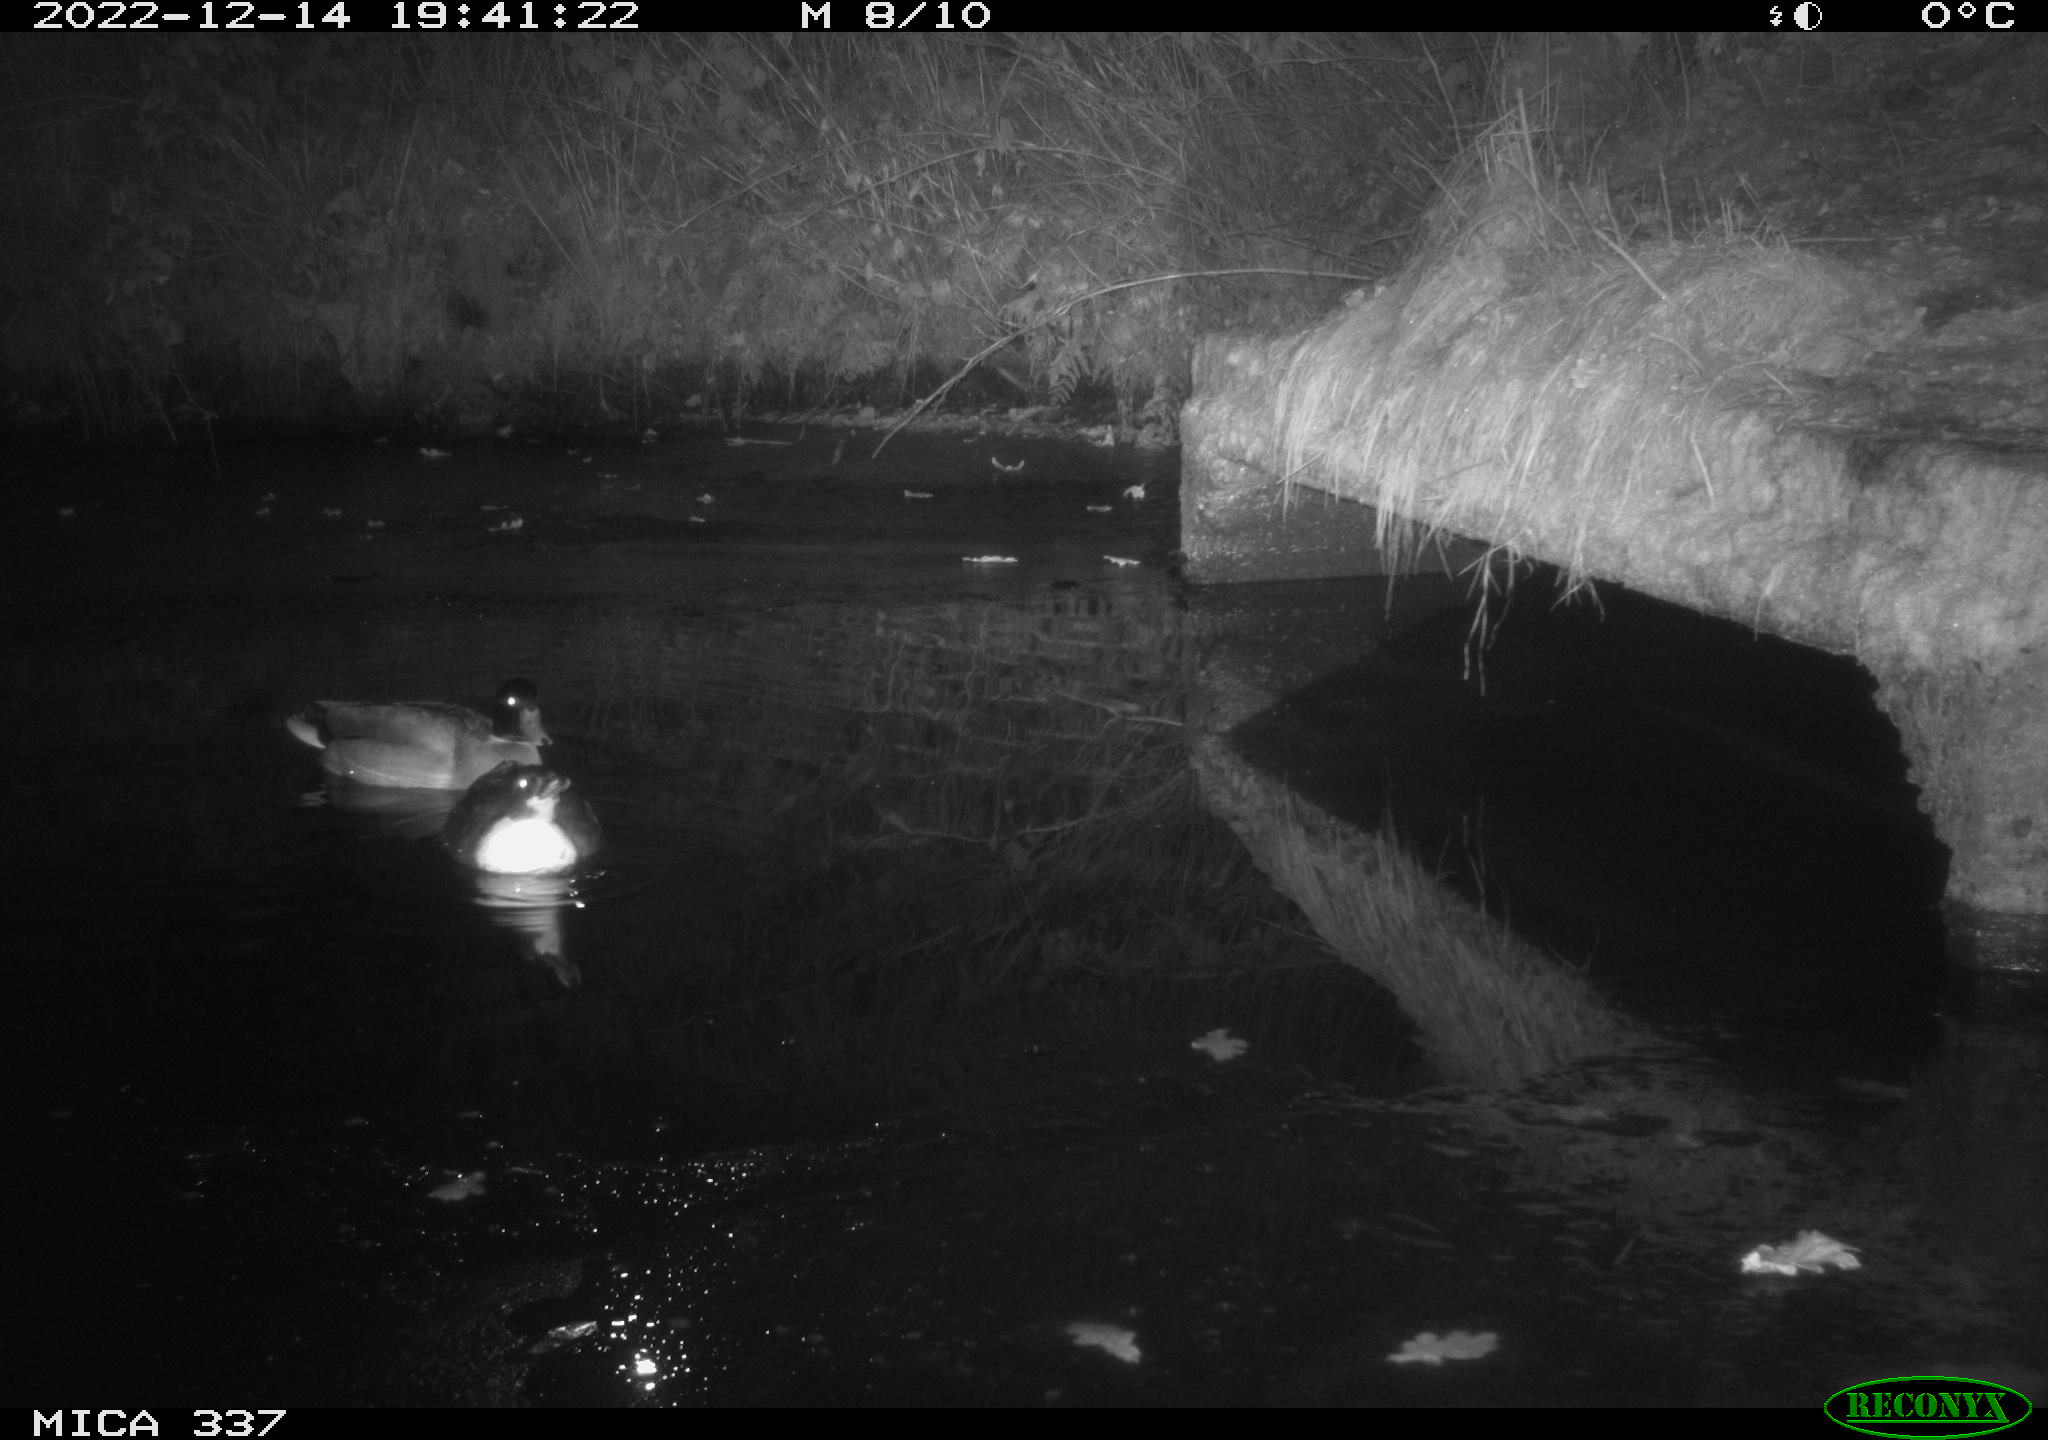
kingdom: Animalia
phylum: Chordata
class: Aves
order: Anseriformes
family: Anatidae
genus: Anas
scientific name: Anas
